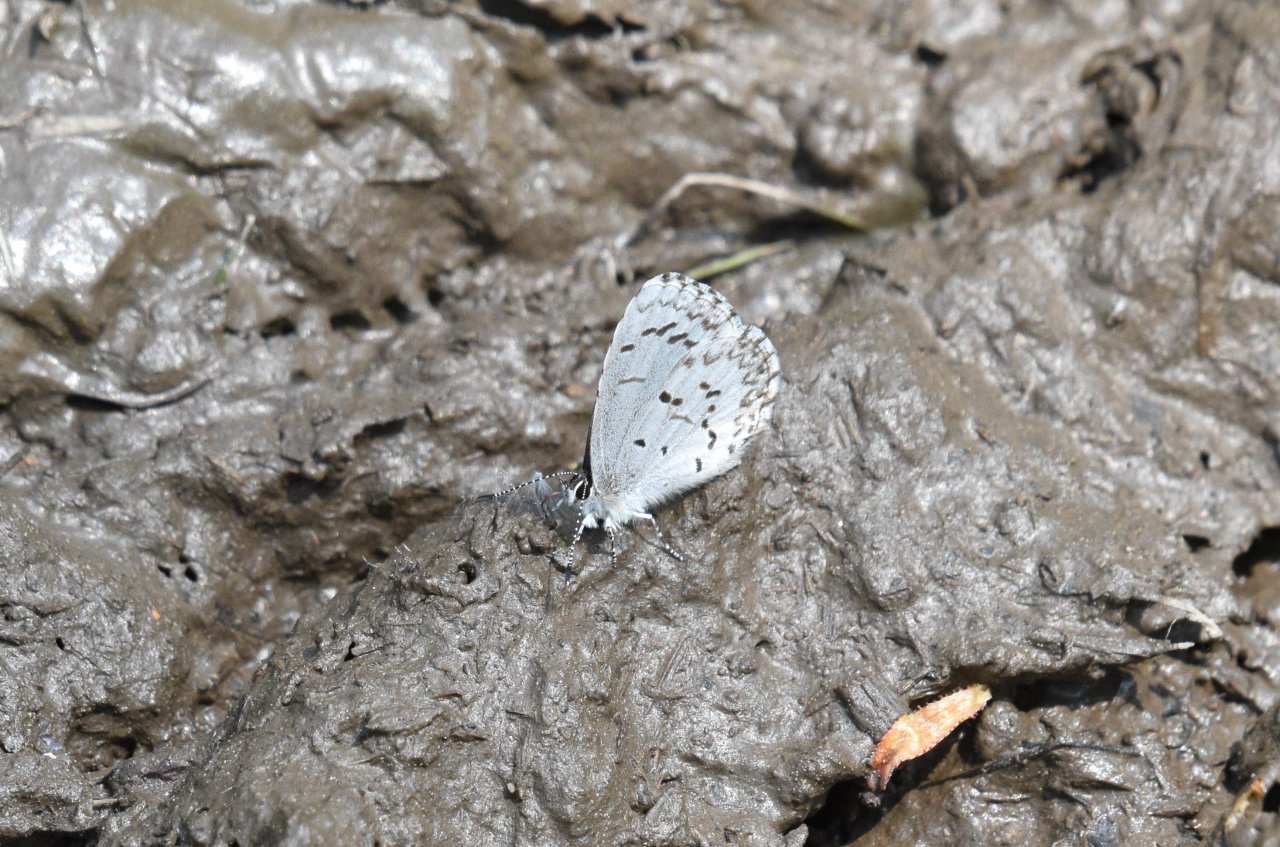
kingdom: Animalia
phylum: Arthropoda
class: Insecta
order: Lepidoptera
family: Lycaenidae
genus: Celastrina
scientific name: Celastrina lucia
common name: Northern Spring Azure
